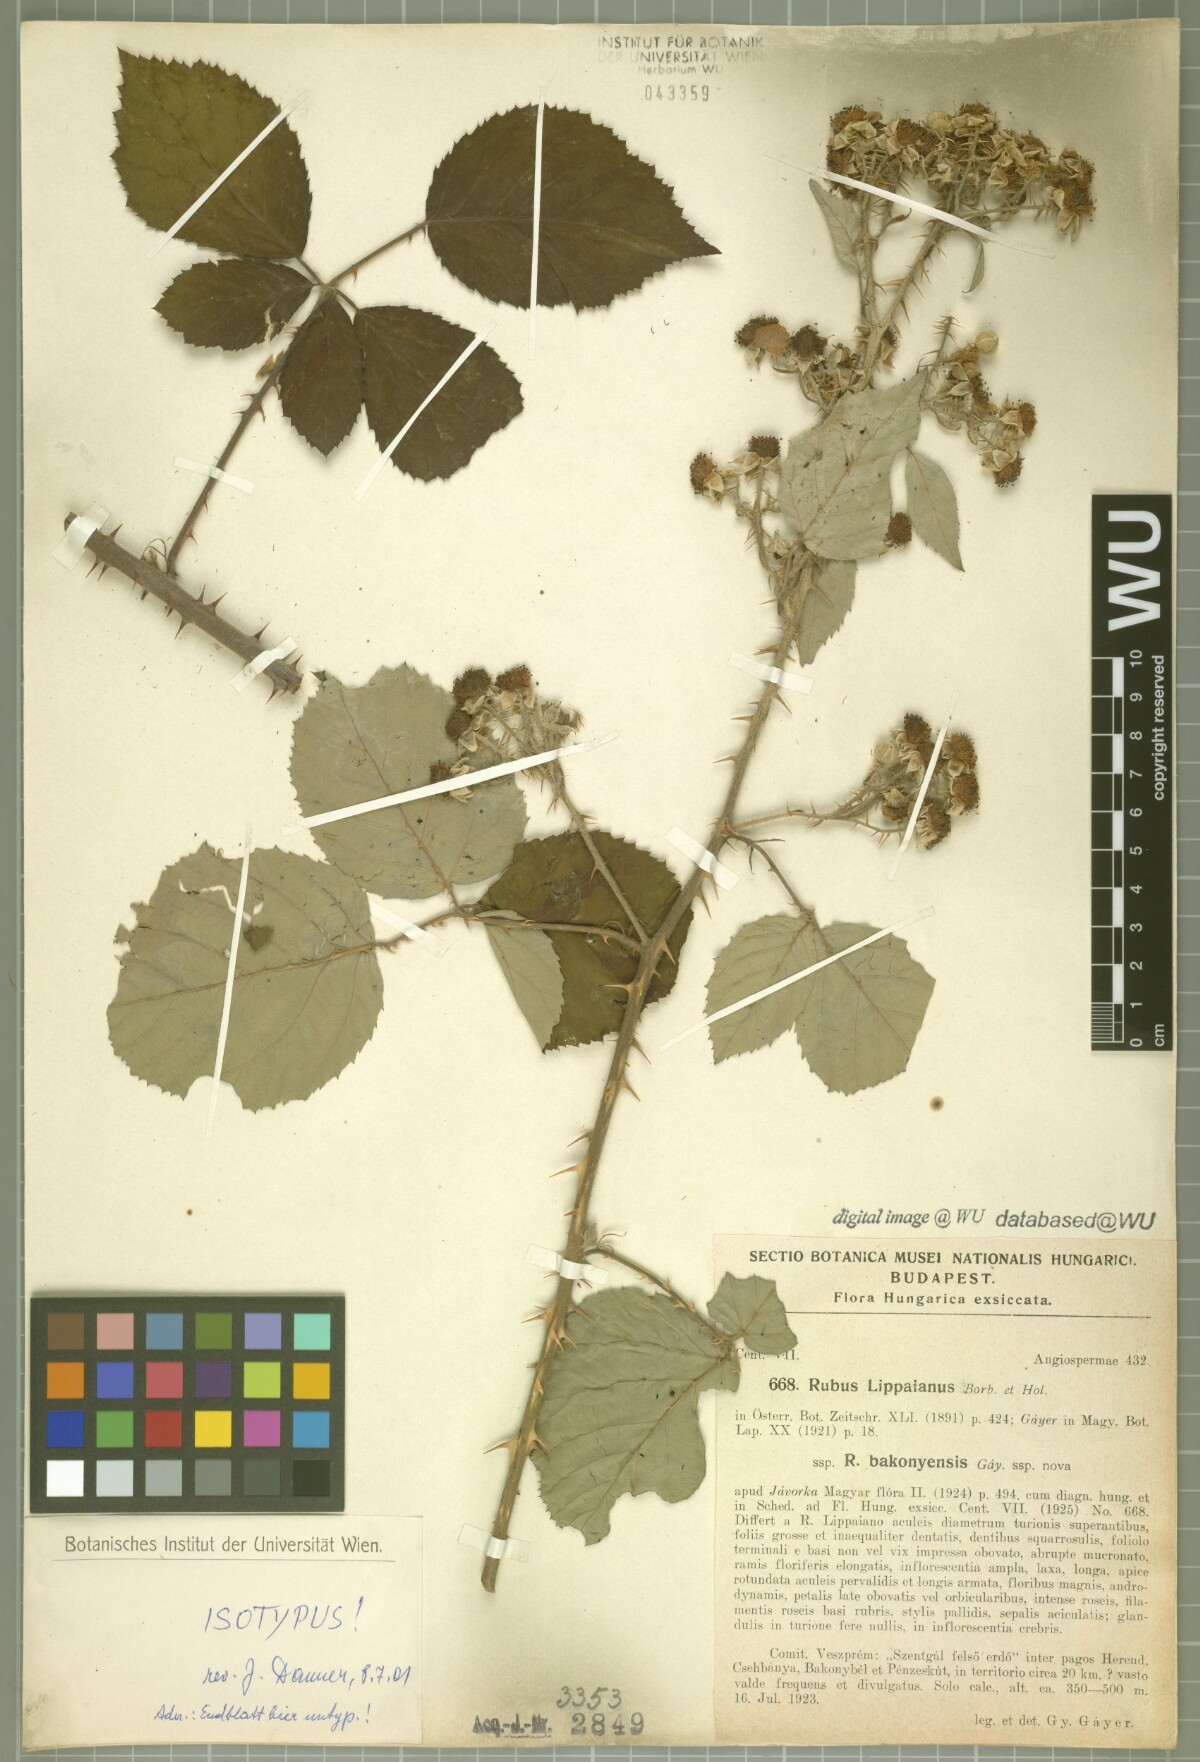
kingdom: Plantae
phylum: Tracheophyta
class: Magnoliopsida
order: Rosales
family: Rosaceae
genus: Rubus
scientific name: Rubus lippaianus
